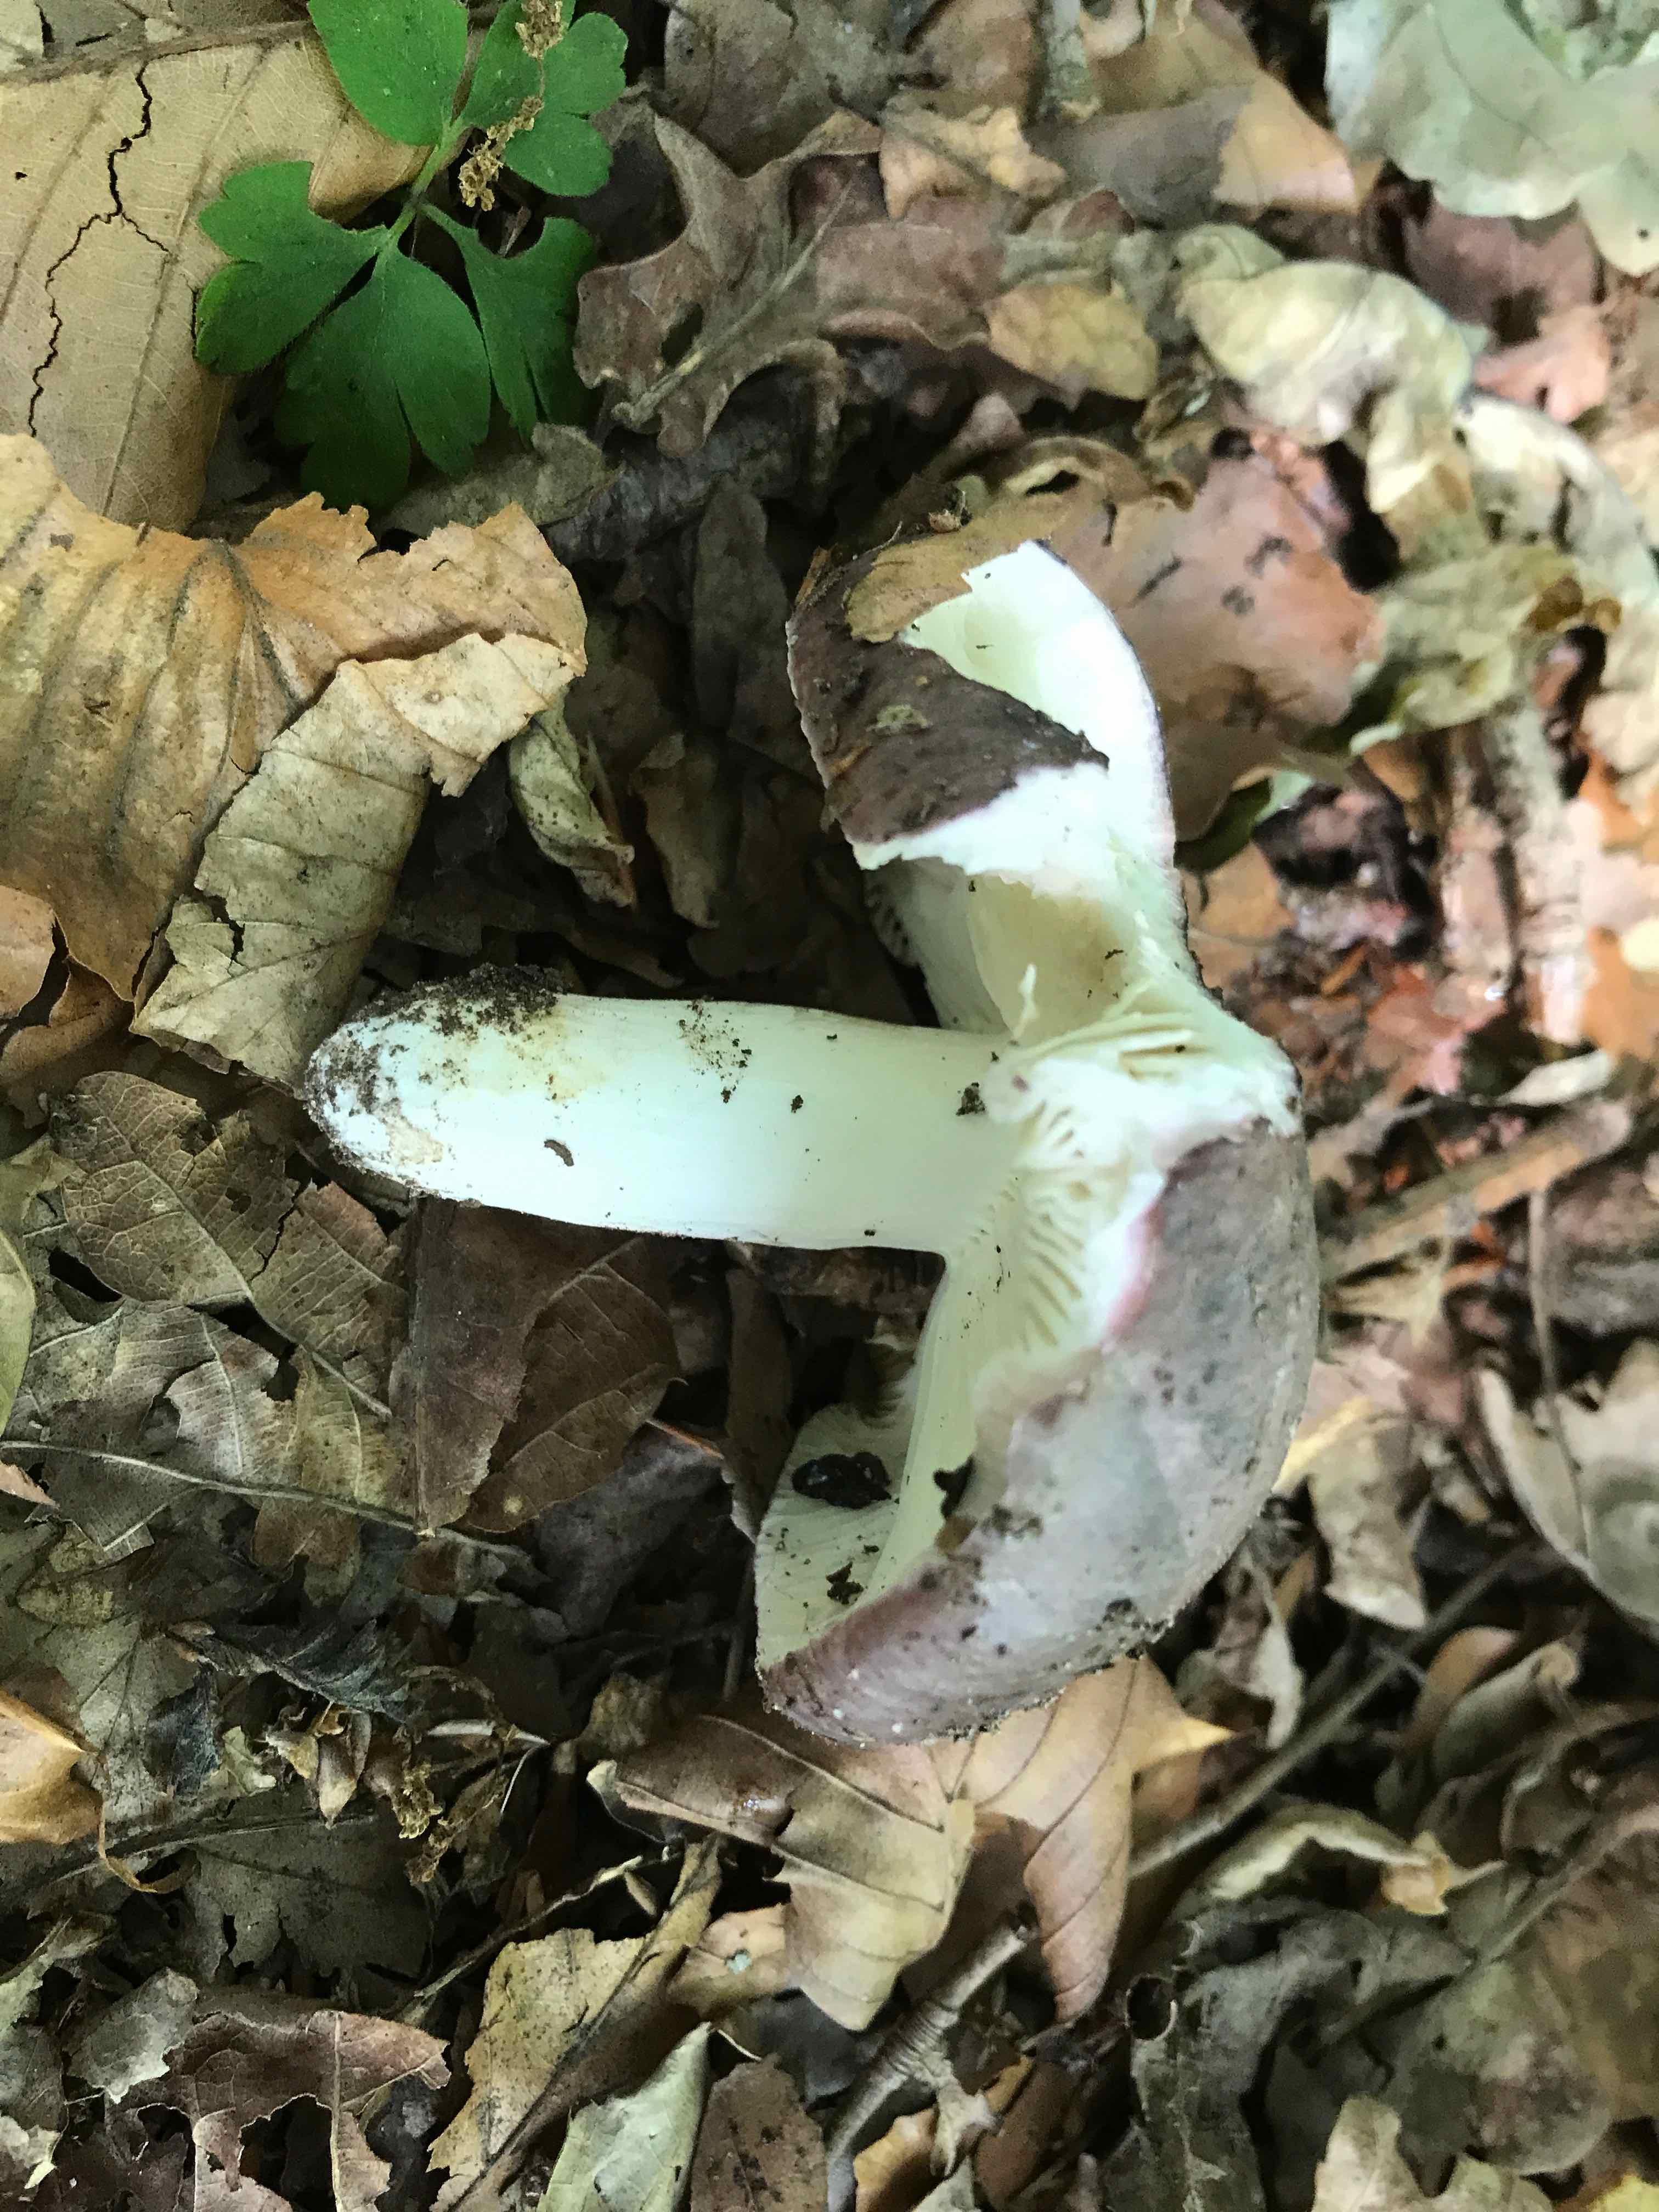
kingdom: Fungi
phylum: Basidiomycota
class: Agaricomycetes
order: Russulales
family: Russulaceae
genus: Russula
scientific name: Russula cyanoxantha
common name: broget skørhat
